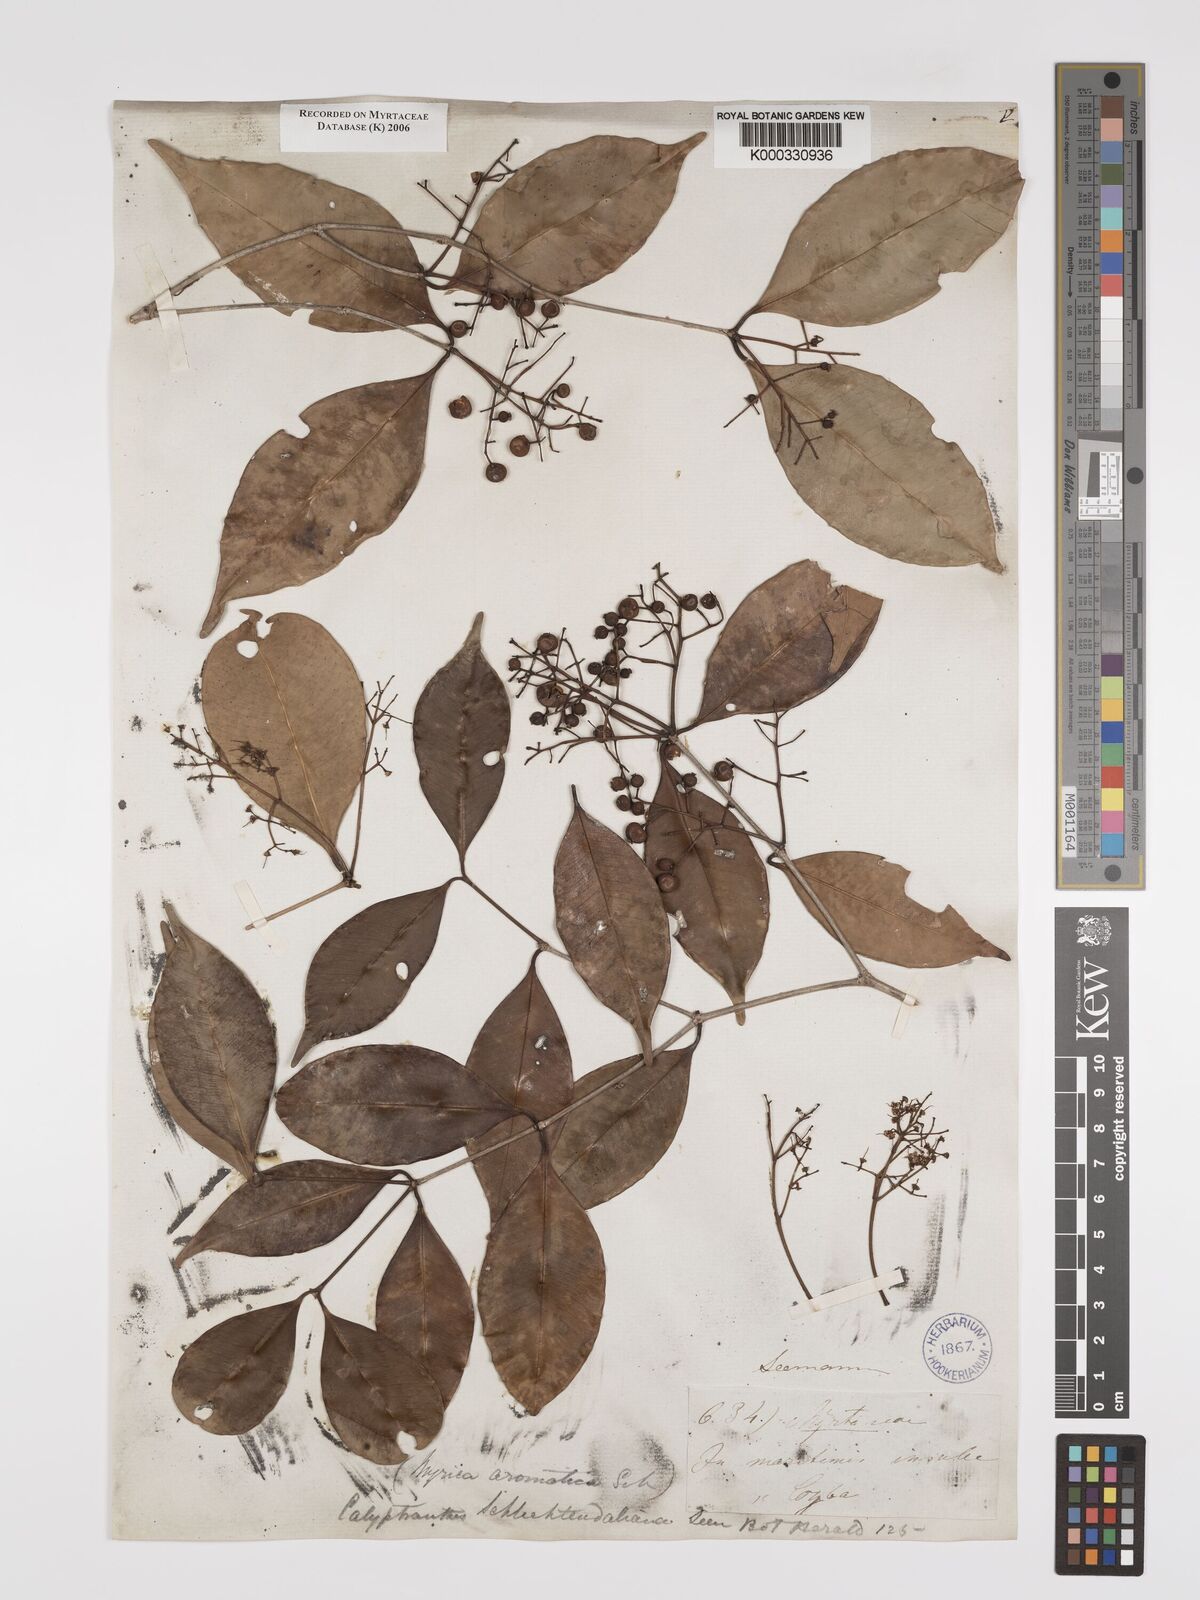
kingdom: Plantae
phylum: Tracheophyta
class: Magnoliopsida
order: Myrtales
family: Myrtaceae
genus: Myrcia
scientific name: Myrcia schiedeana
